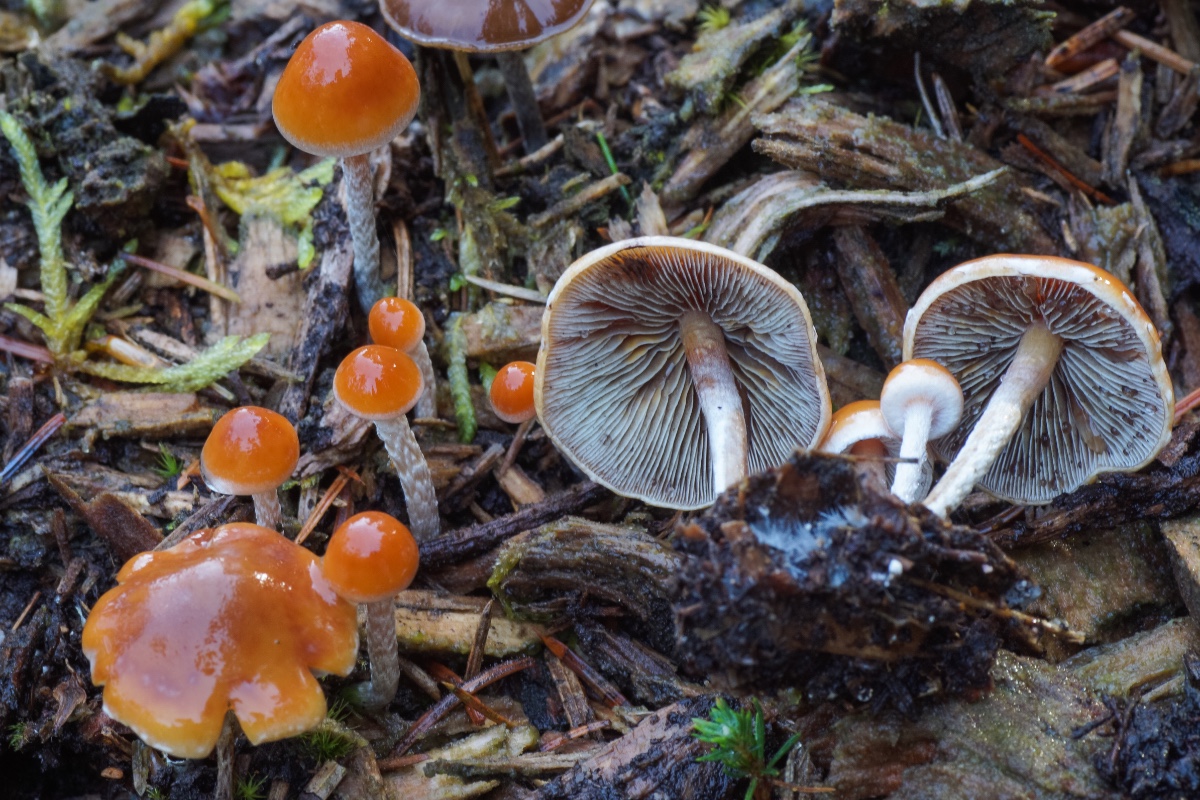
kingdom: Fungi
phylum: Basidiomycota
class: Agaricomycetes
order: Agaricales
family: Strophariaceae
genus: Hypholoma
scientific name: Hypholoma marginatum
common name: enlig svovlhat
